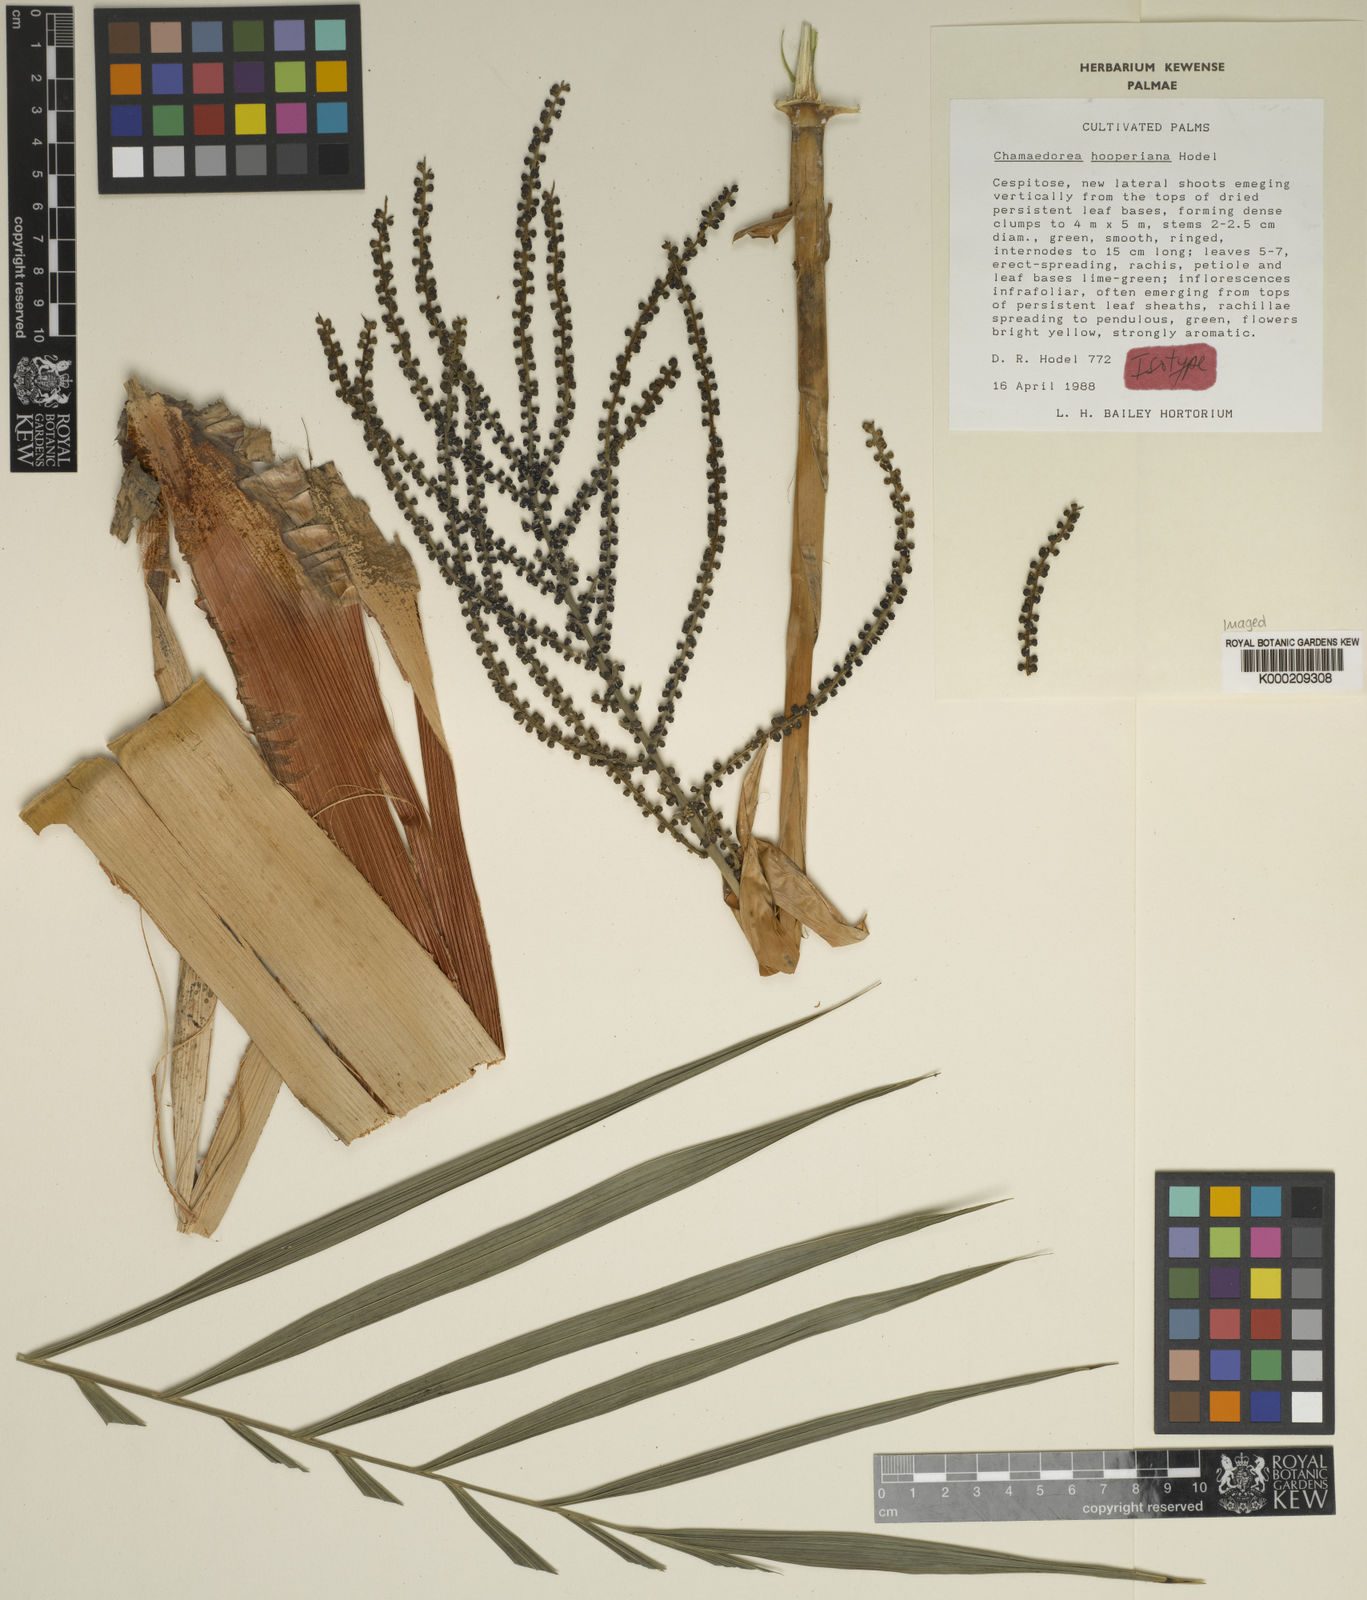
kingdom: Plantae
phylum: Tracheophyta
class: Liliopsida
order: Arecales
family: Arecaceae
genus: Chamaedorea
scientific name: Chamaedorea hooperiana
